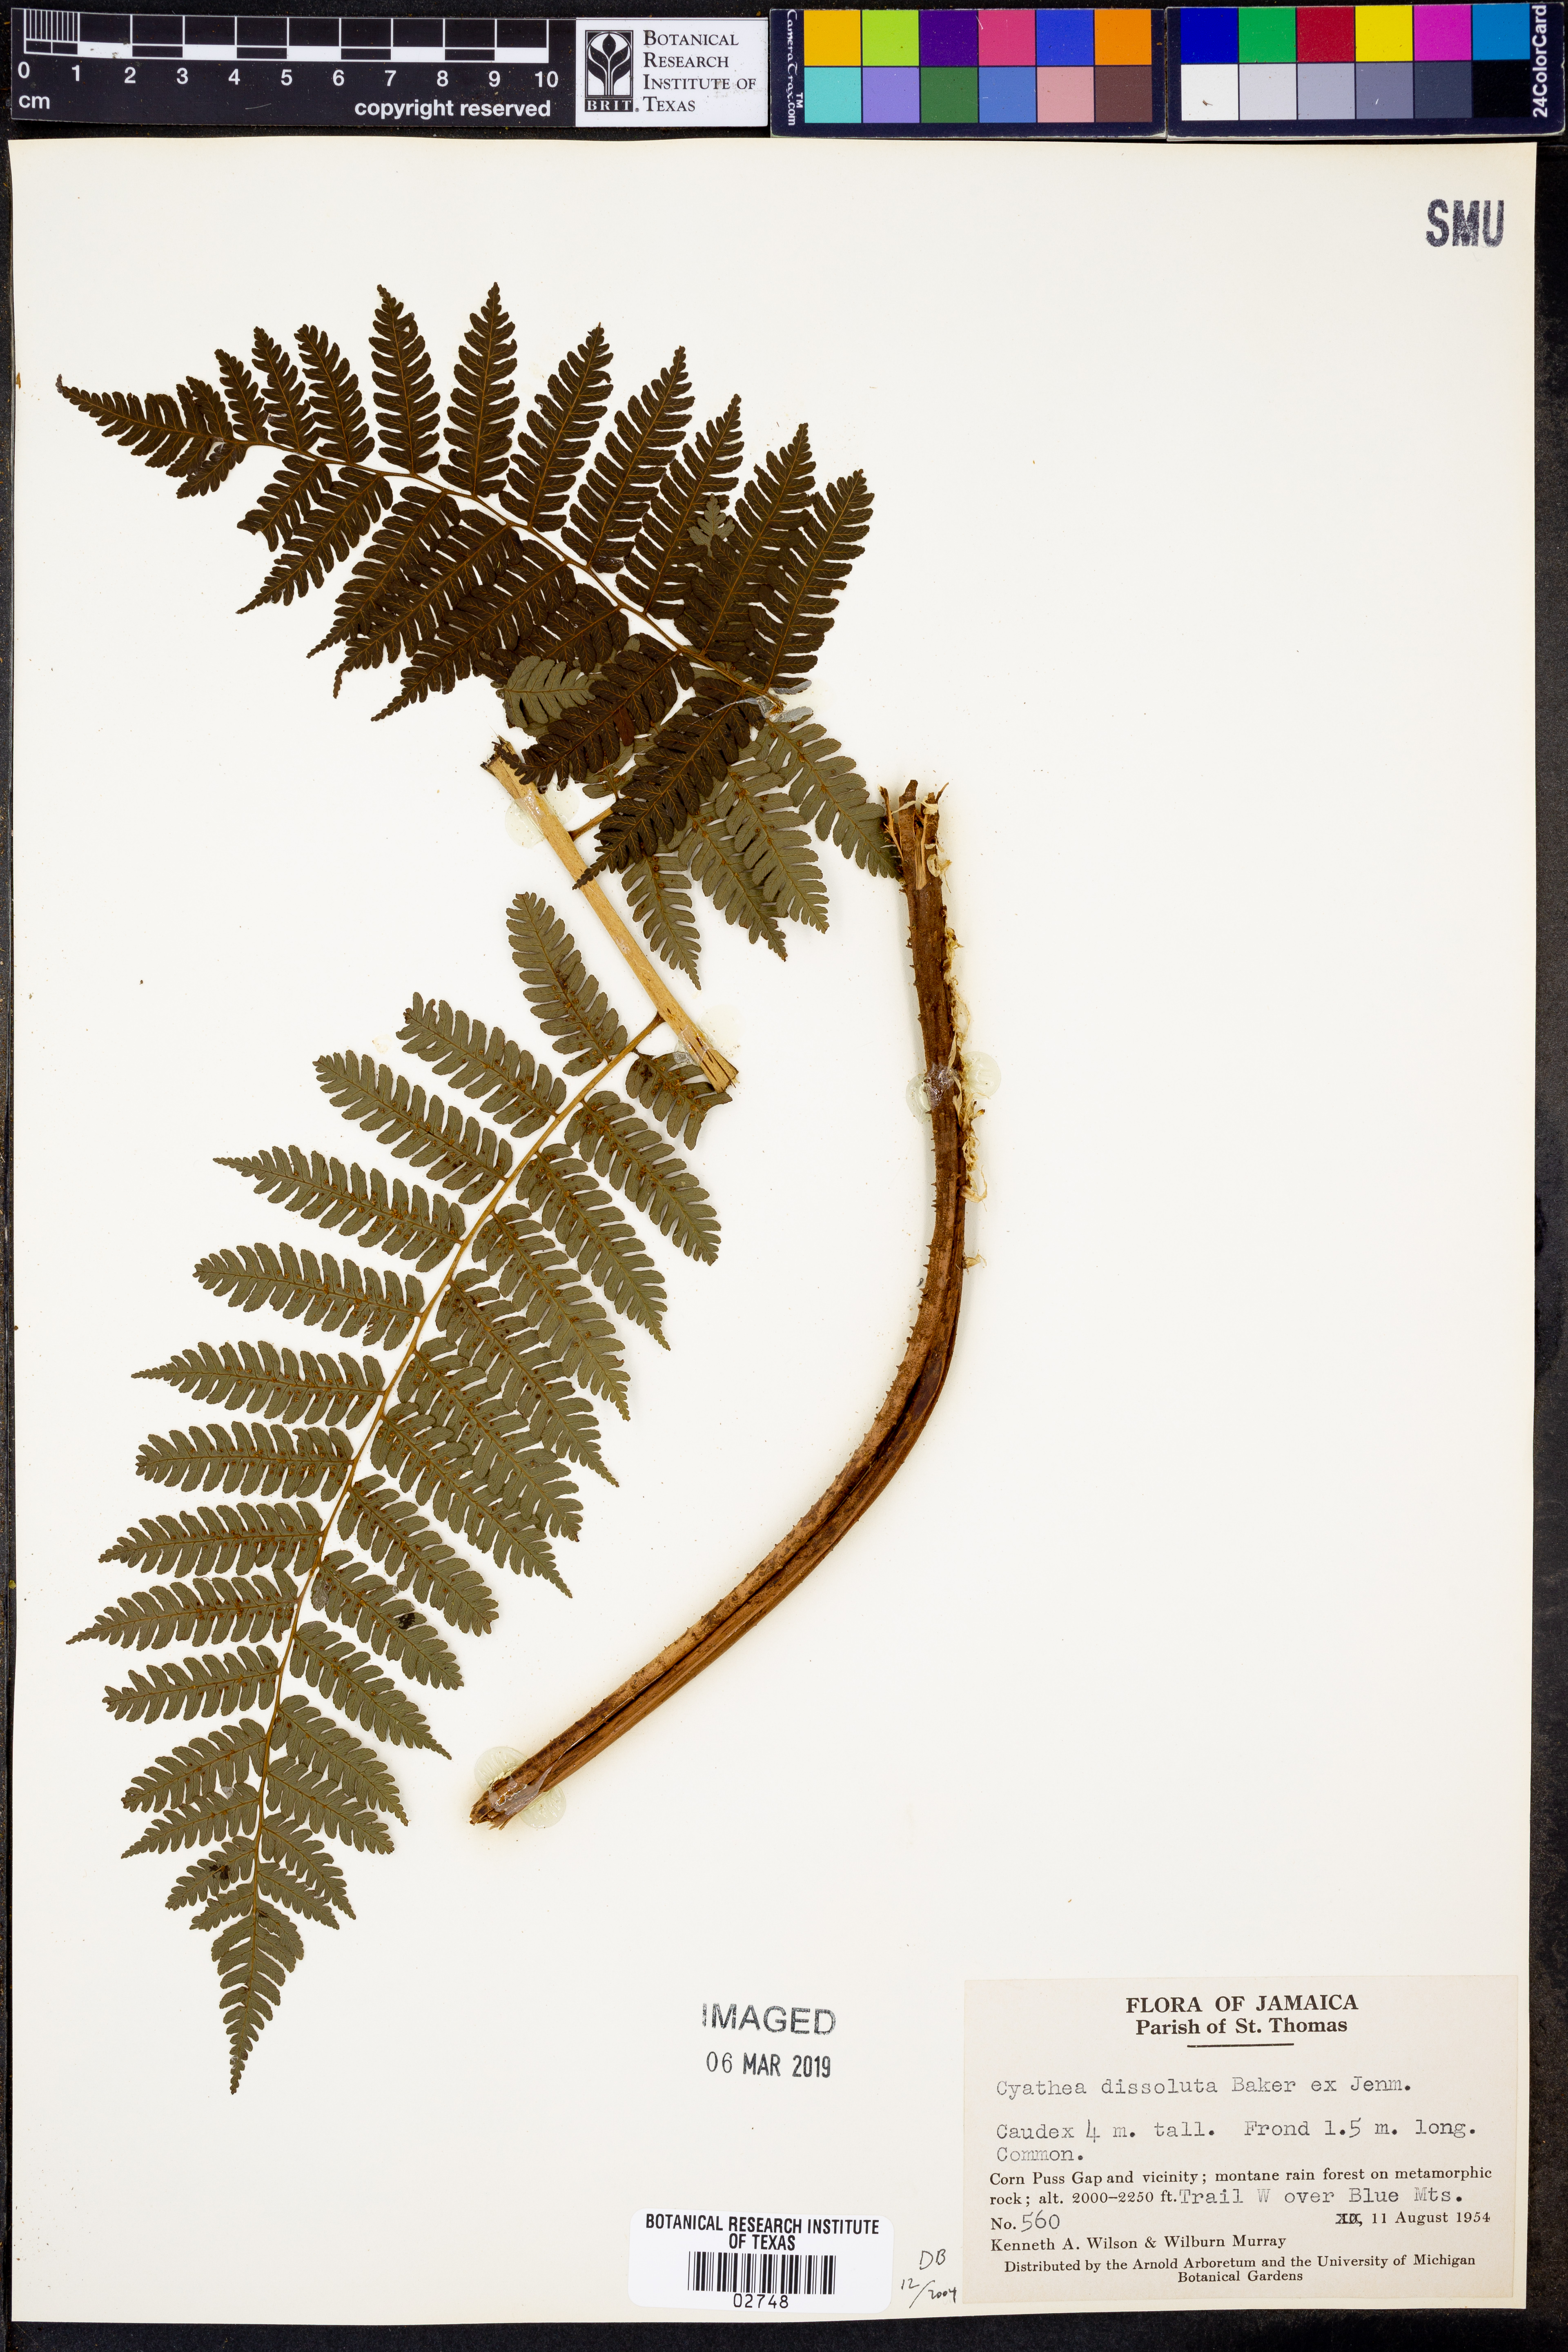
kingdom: Plantae
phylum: Tracheophyta
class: Polypodiopsida
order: Cyatheales
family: Cyatheaceae
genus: Cyathea
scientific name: Cyathea dissoluta
